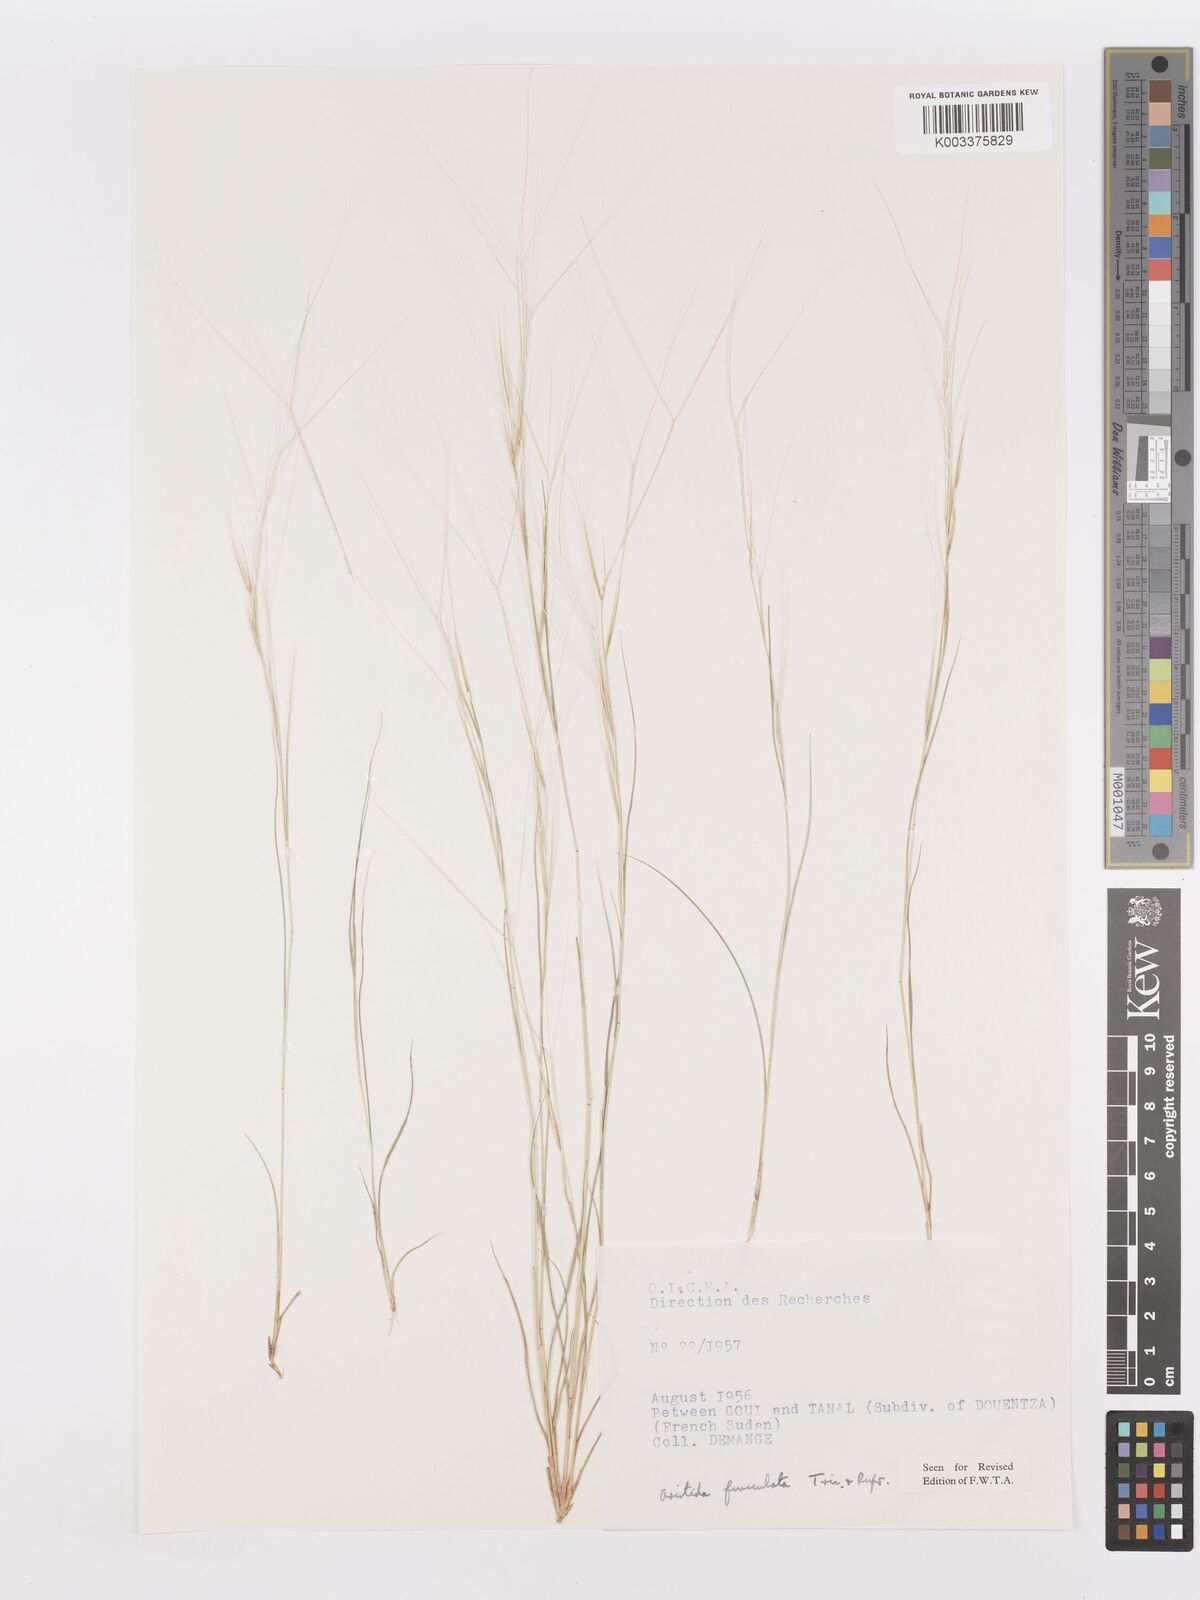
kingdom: Plantae
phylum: Tracheophyta
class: Liliopsida
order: Poales
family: Poaceae
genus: Aristida
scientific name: Aristida funiculata
